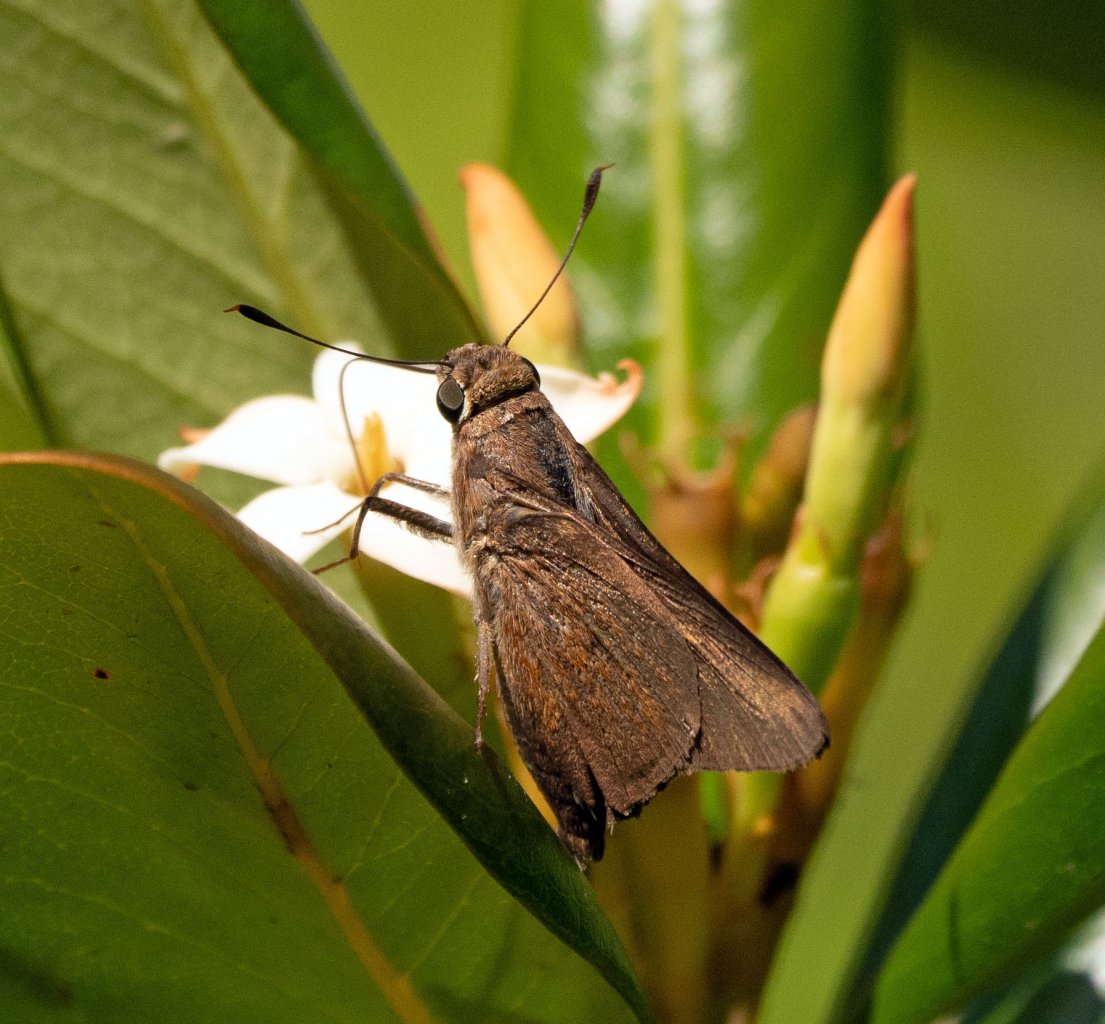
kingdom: Animalia
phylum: Arthropoda
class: Insecta
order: Lepidoptera
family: Hesperiidae
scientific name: Hesperiidae
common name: Skippers
